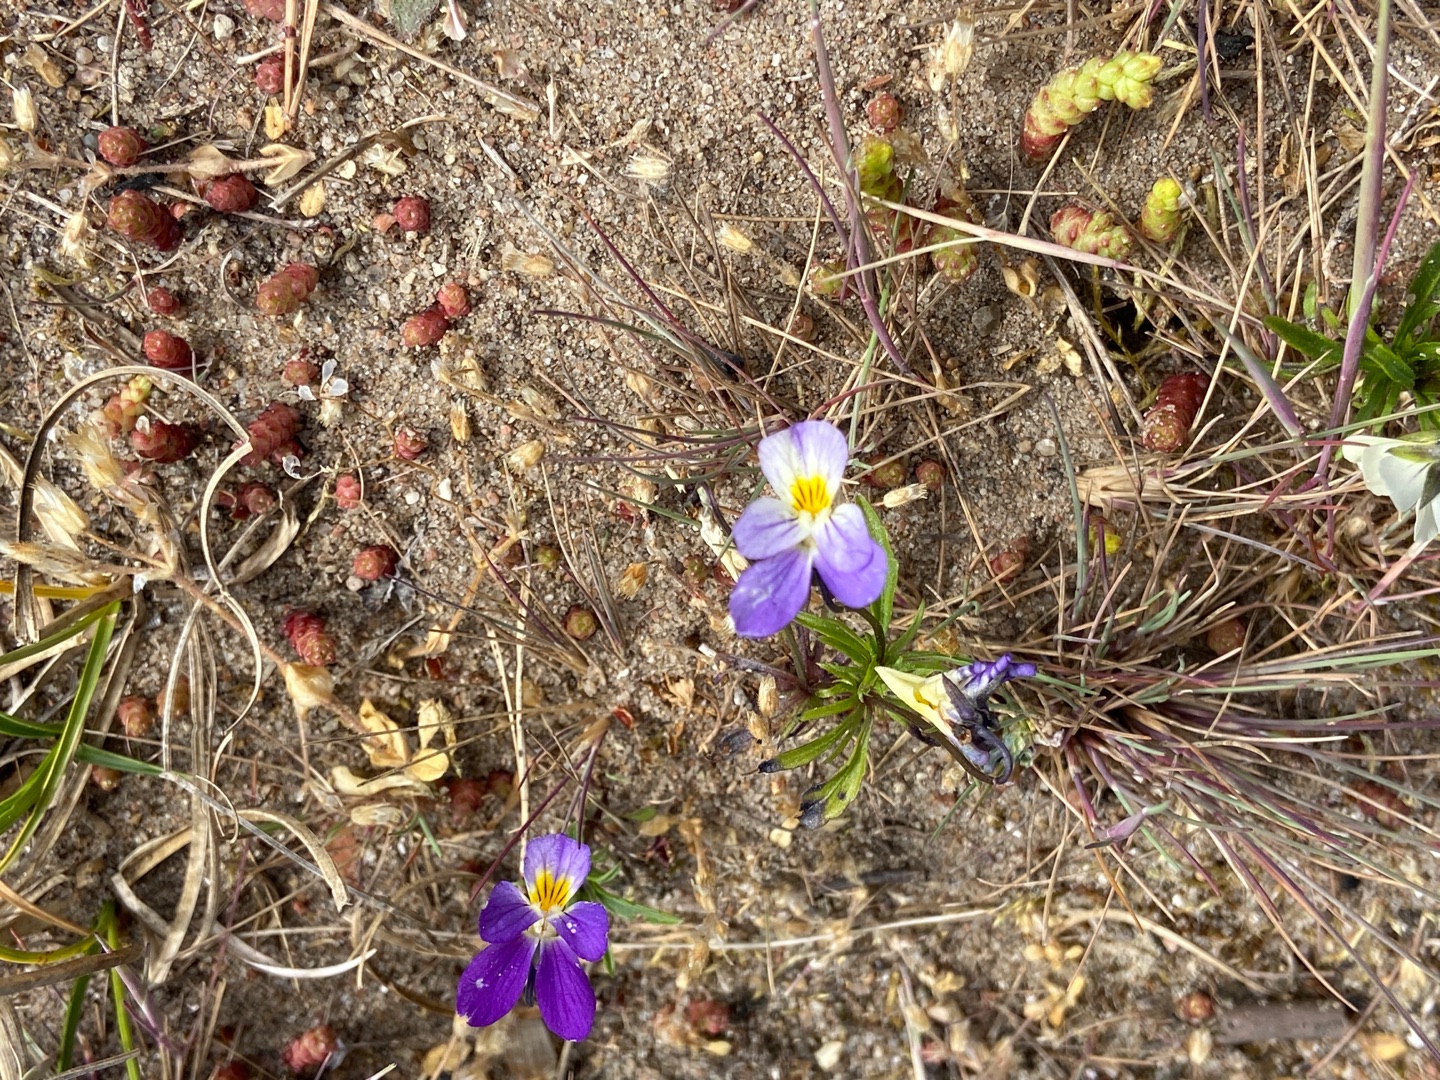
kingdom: Plantae
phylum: Tracheophyta
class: Magnoliopsida
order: Malpighiales
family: Violaceae
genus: Viola
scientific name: Viola tricolor
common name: Stedmoderblomst
